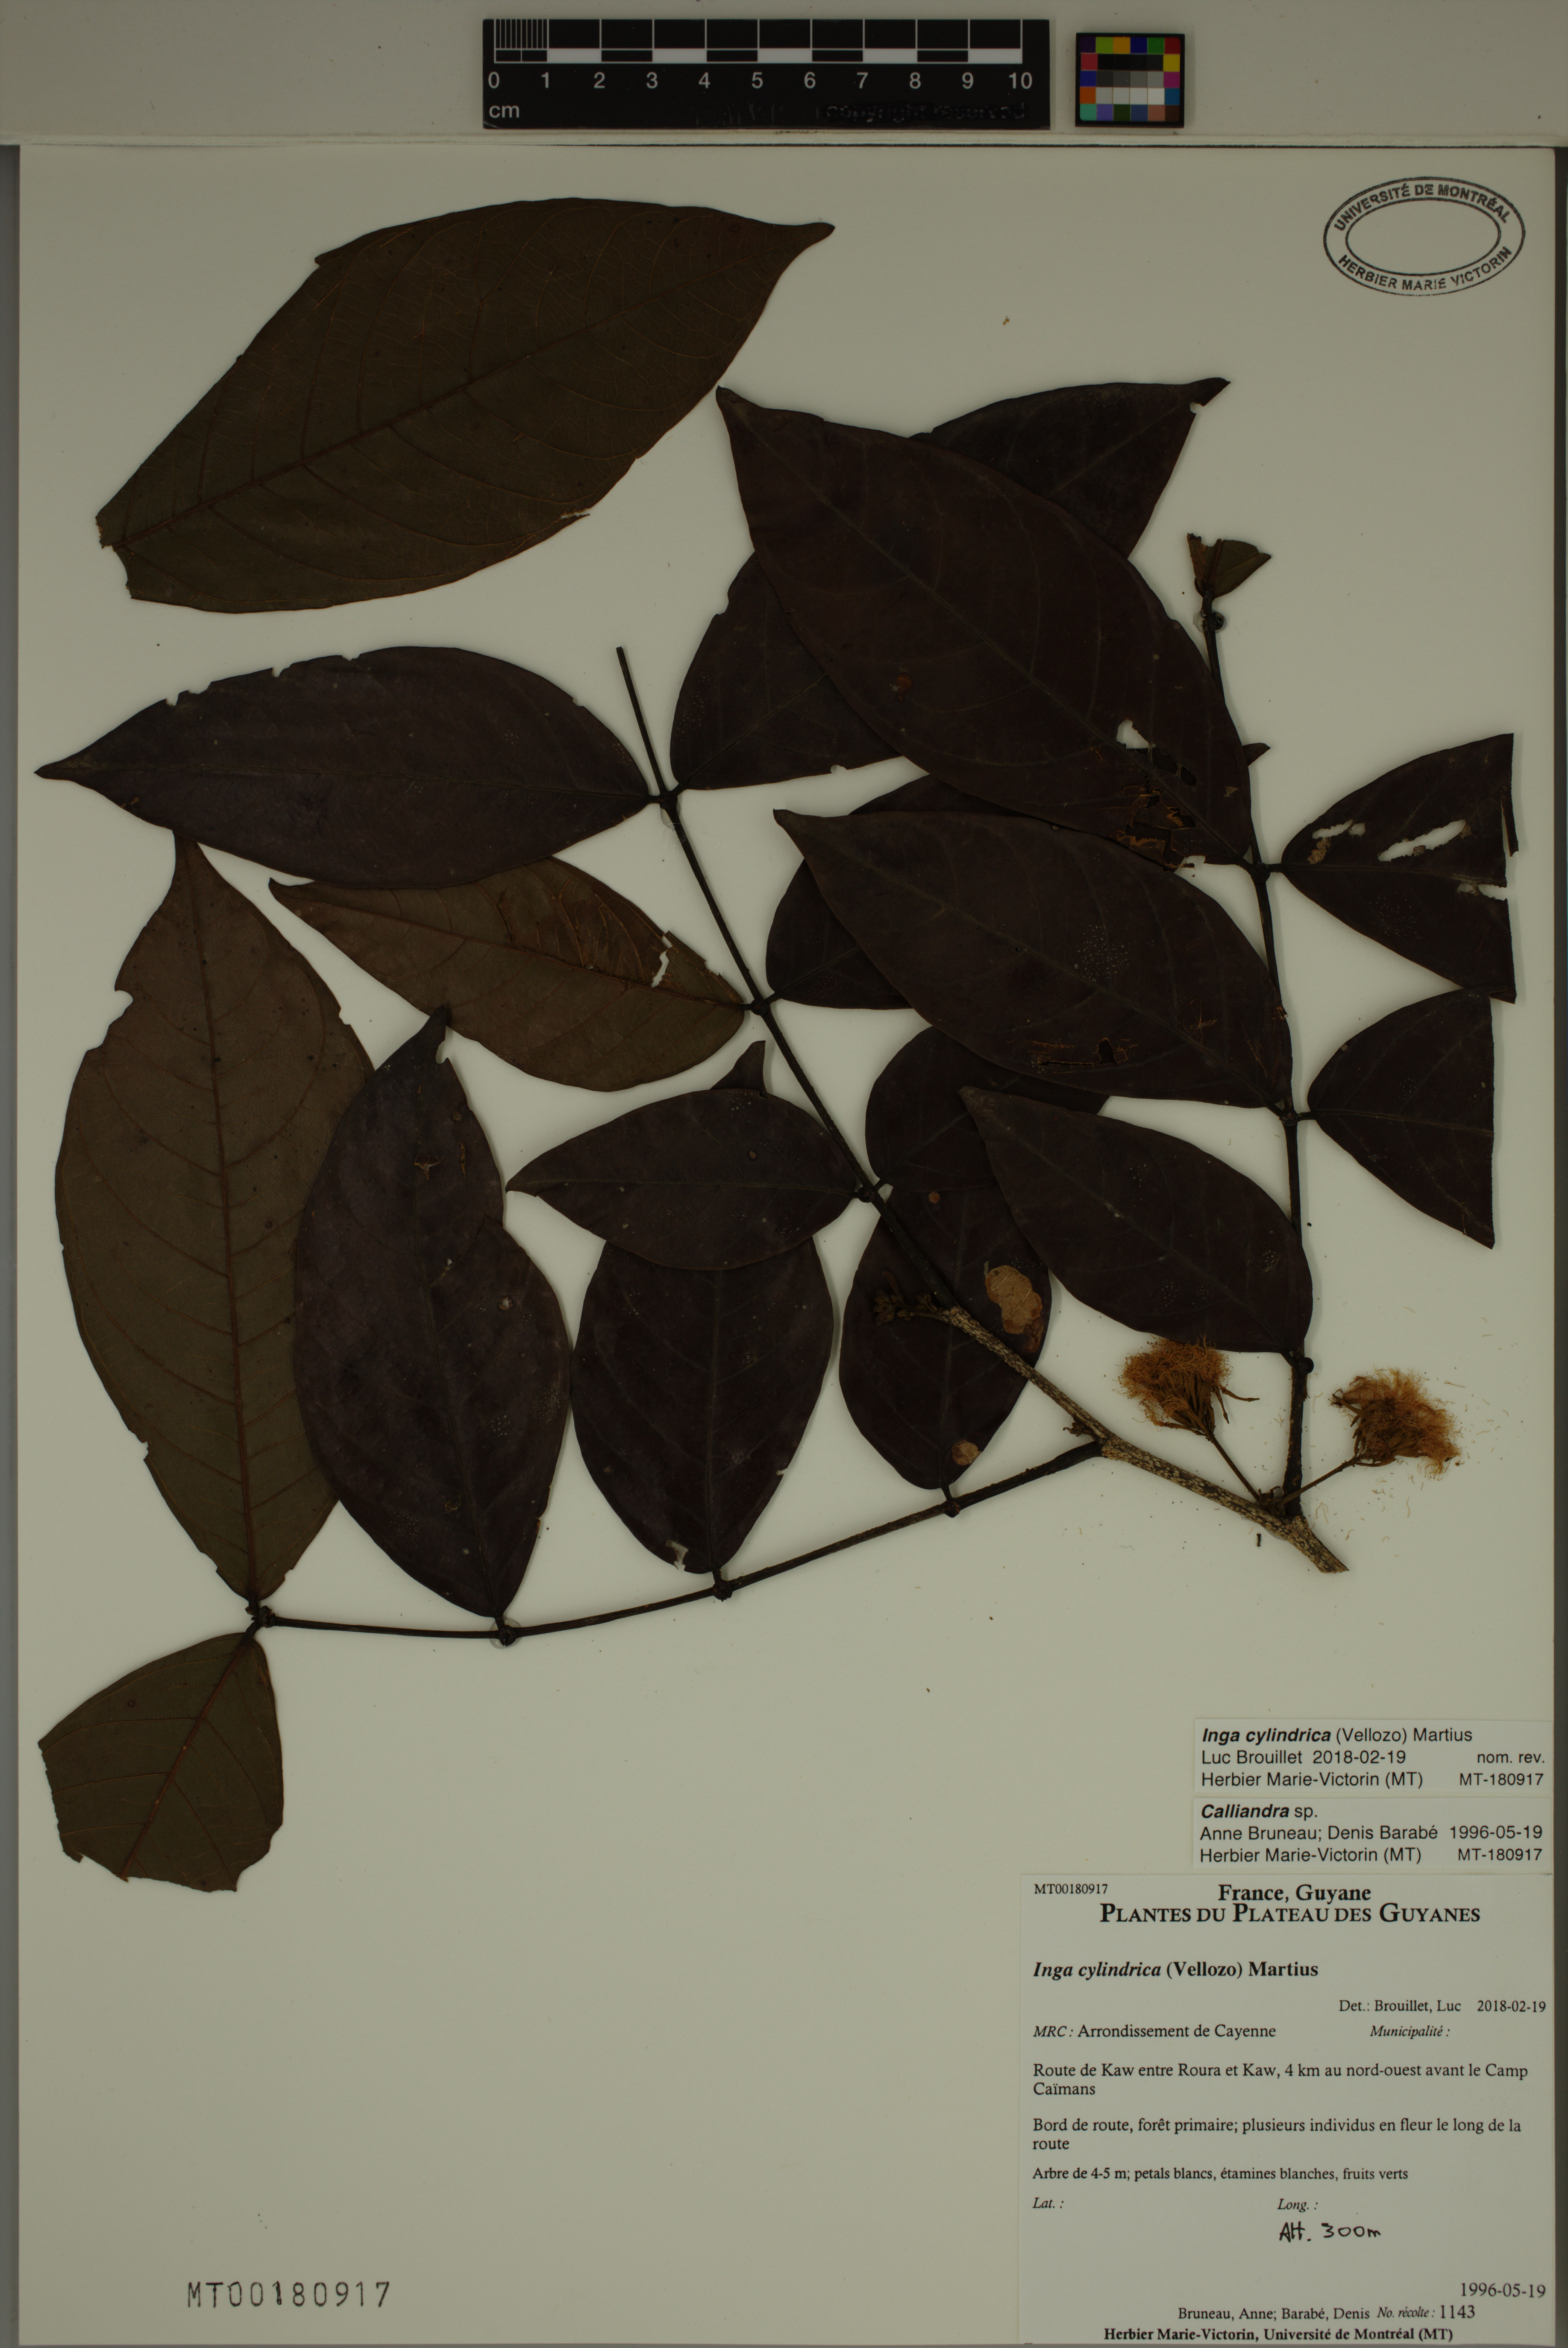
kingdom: Plantae
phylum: Tracheophyta
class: Magnoliopsida
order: Fabales
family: Fabaceae
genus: Inga
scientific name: Inga cylindrica
